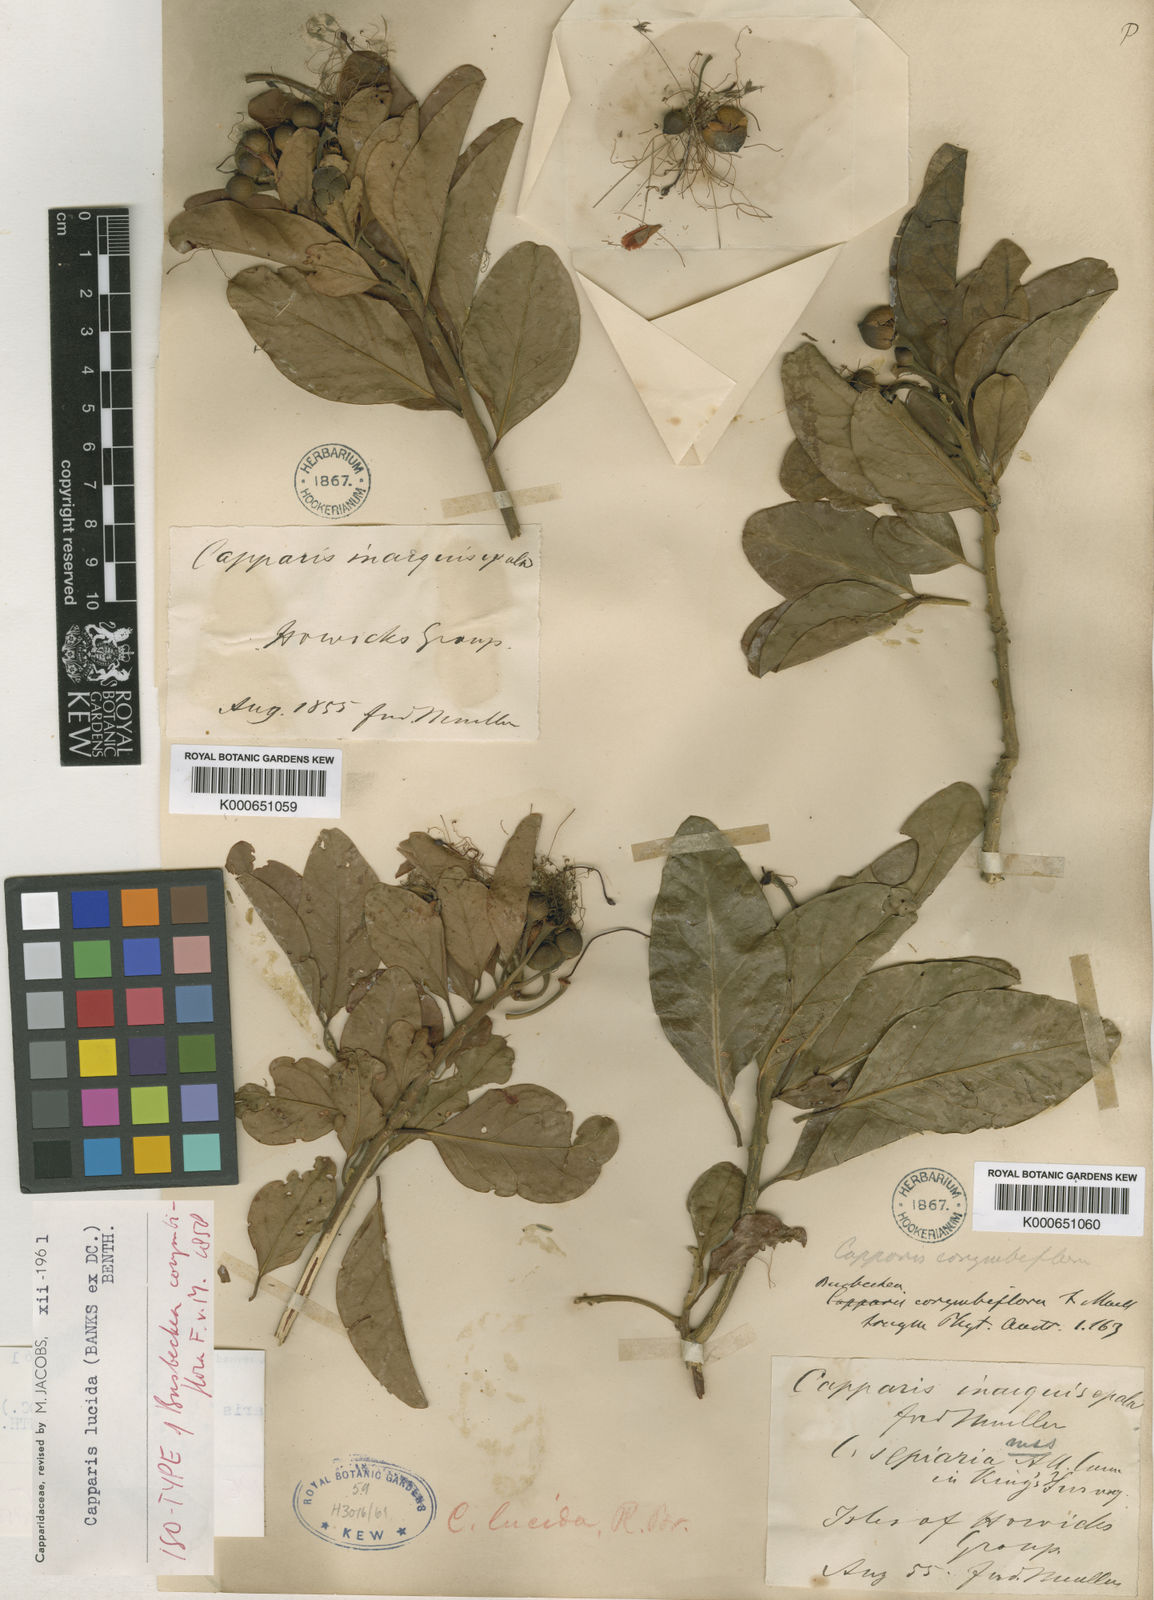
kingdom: Plantae
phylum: Tracheophyta
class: Magnoliopsida
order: Brassicales
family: Capparaceae
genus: Capparis
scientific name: Capparis lucida
